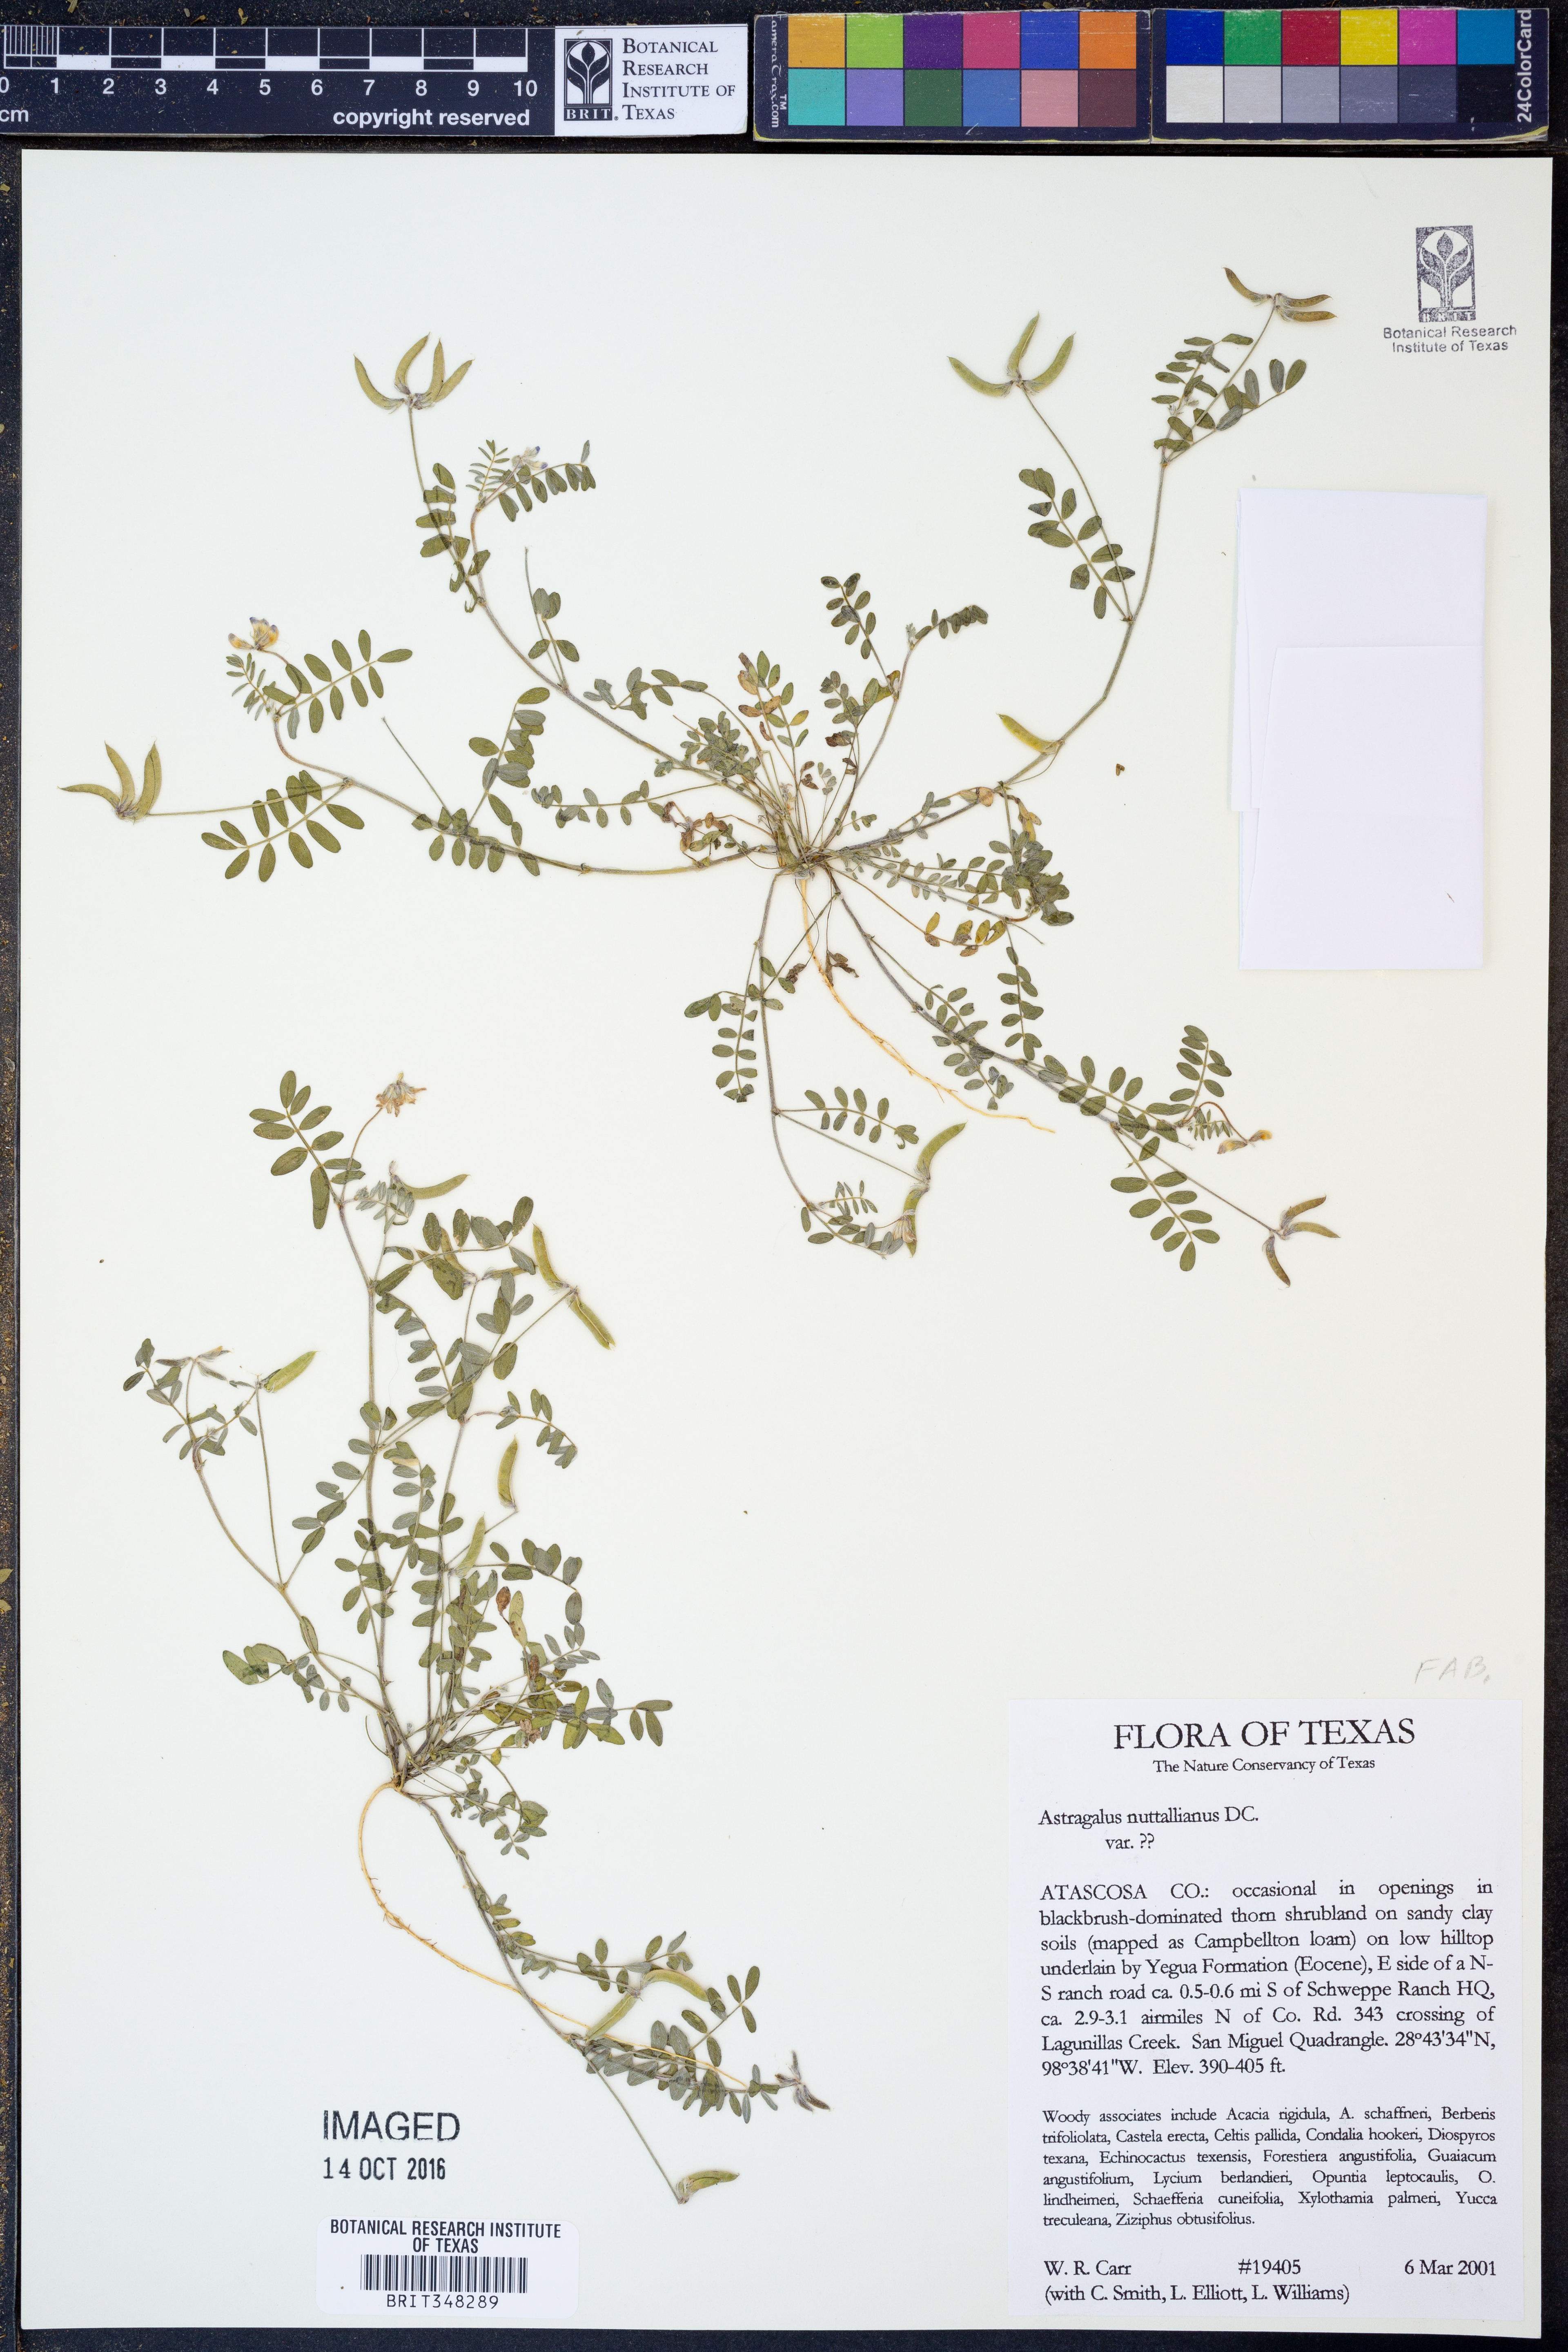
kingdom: Plantae
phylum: Tracheophyta
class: Magnoliopsida
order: Fabales
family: Fabaceae
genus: Astragalus
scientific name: Astragalus nuttallianus
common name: Smallflowered milkvetch
